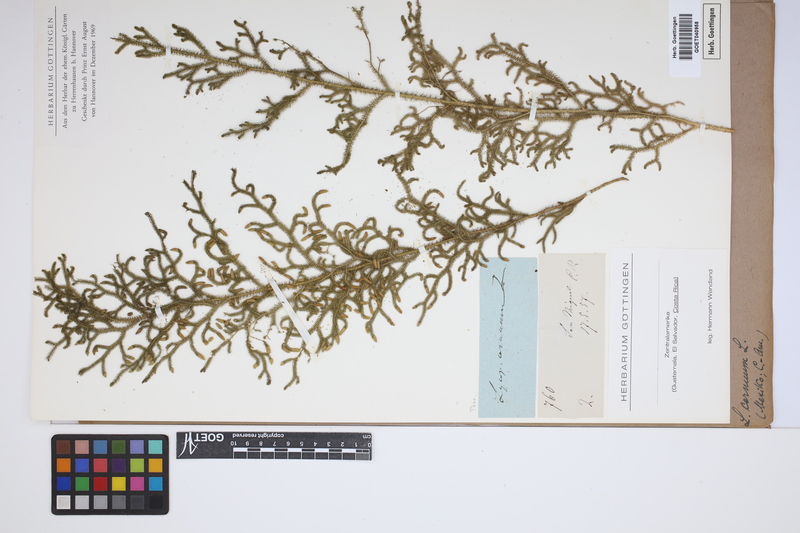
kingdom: Plantae
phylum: Tracheophyta
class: Lycopodiopsida
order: Lycopodiales
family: Lycopodiaceae
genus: Palhinhaea
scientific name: Palhinhaea cernua
